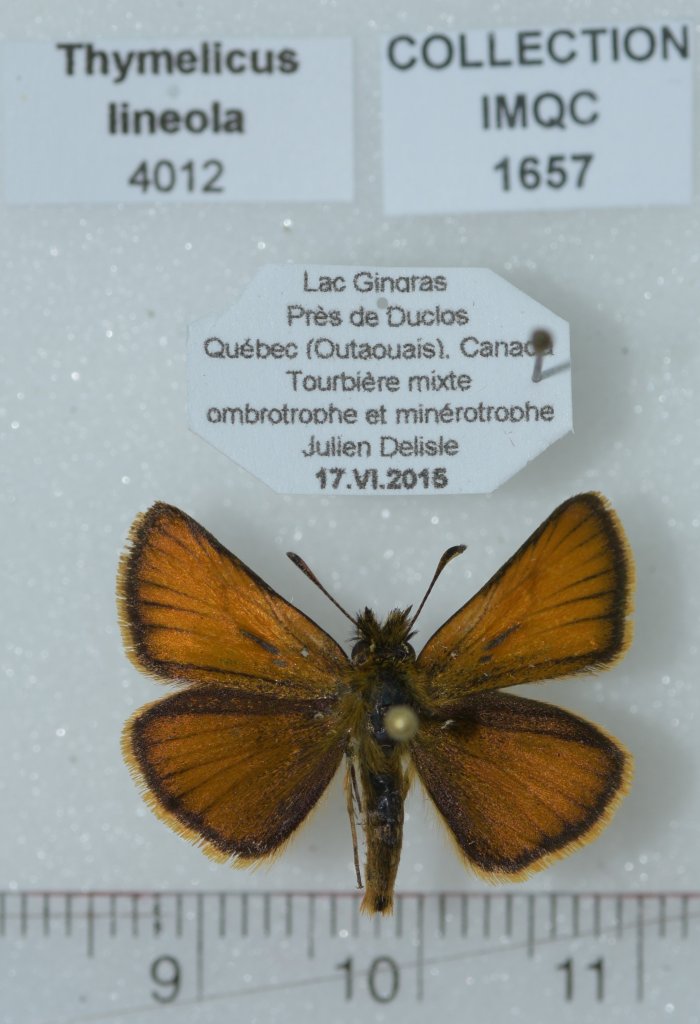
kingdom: Animalia
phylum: Arthropoda
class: Insecta
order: Lepidoptera
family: Hesperiidae
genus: Thymelicus
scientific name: Thymelicus lineola
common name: European Skipper
